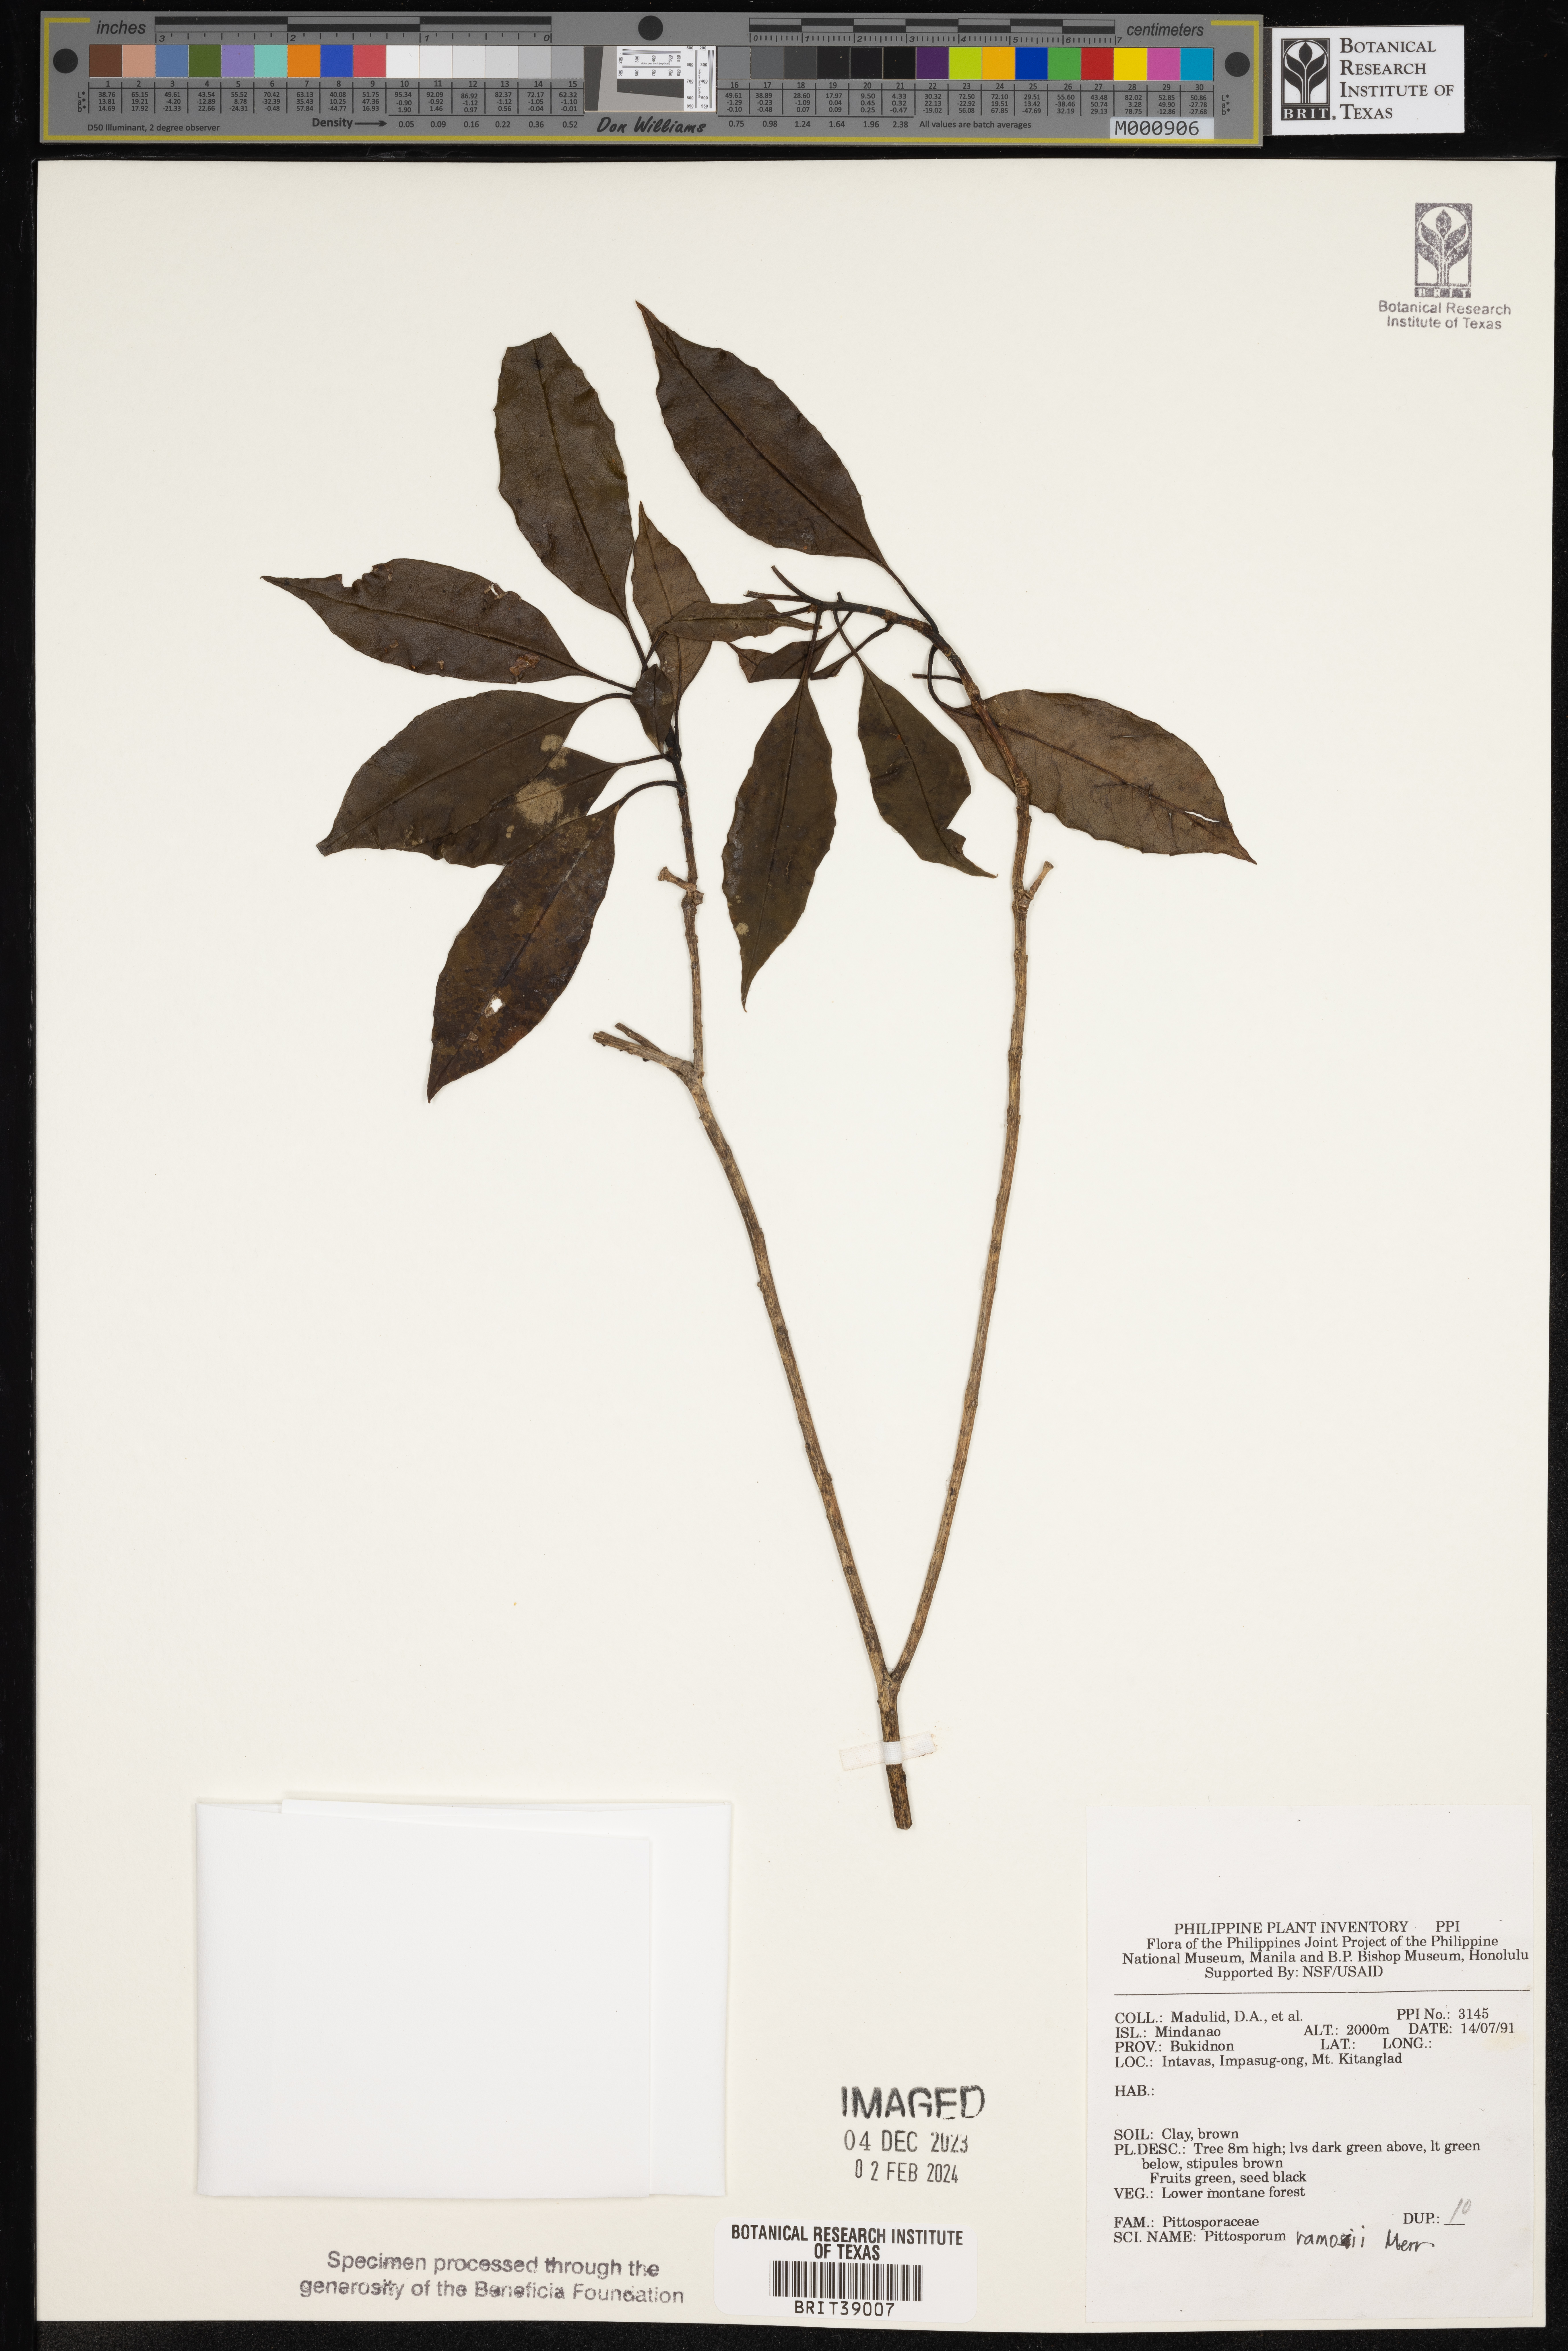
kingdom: Plantae
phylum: Tracheophyta
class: Magnoliopsida
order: Apiales
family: Pittosporaceae
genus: Pittosporum
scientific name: Pittosporum ramosii
